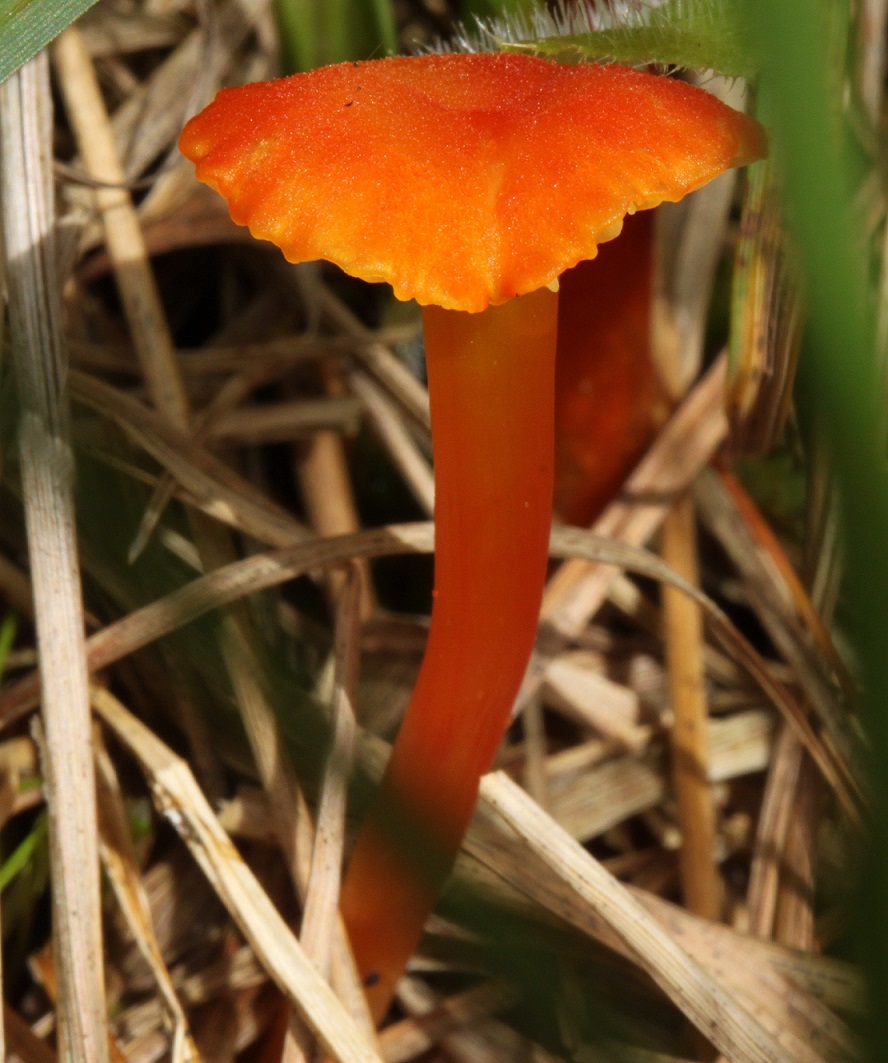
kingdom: Fungi
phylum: Basidiomycota
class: Agaricomycetes
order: Agaricales
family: Hygrophoraceae
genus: Hygrocybe
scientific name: Hygrocybe cantharellus
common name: kantarel-vokshat
